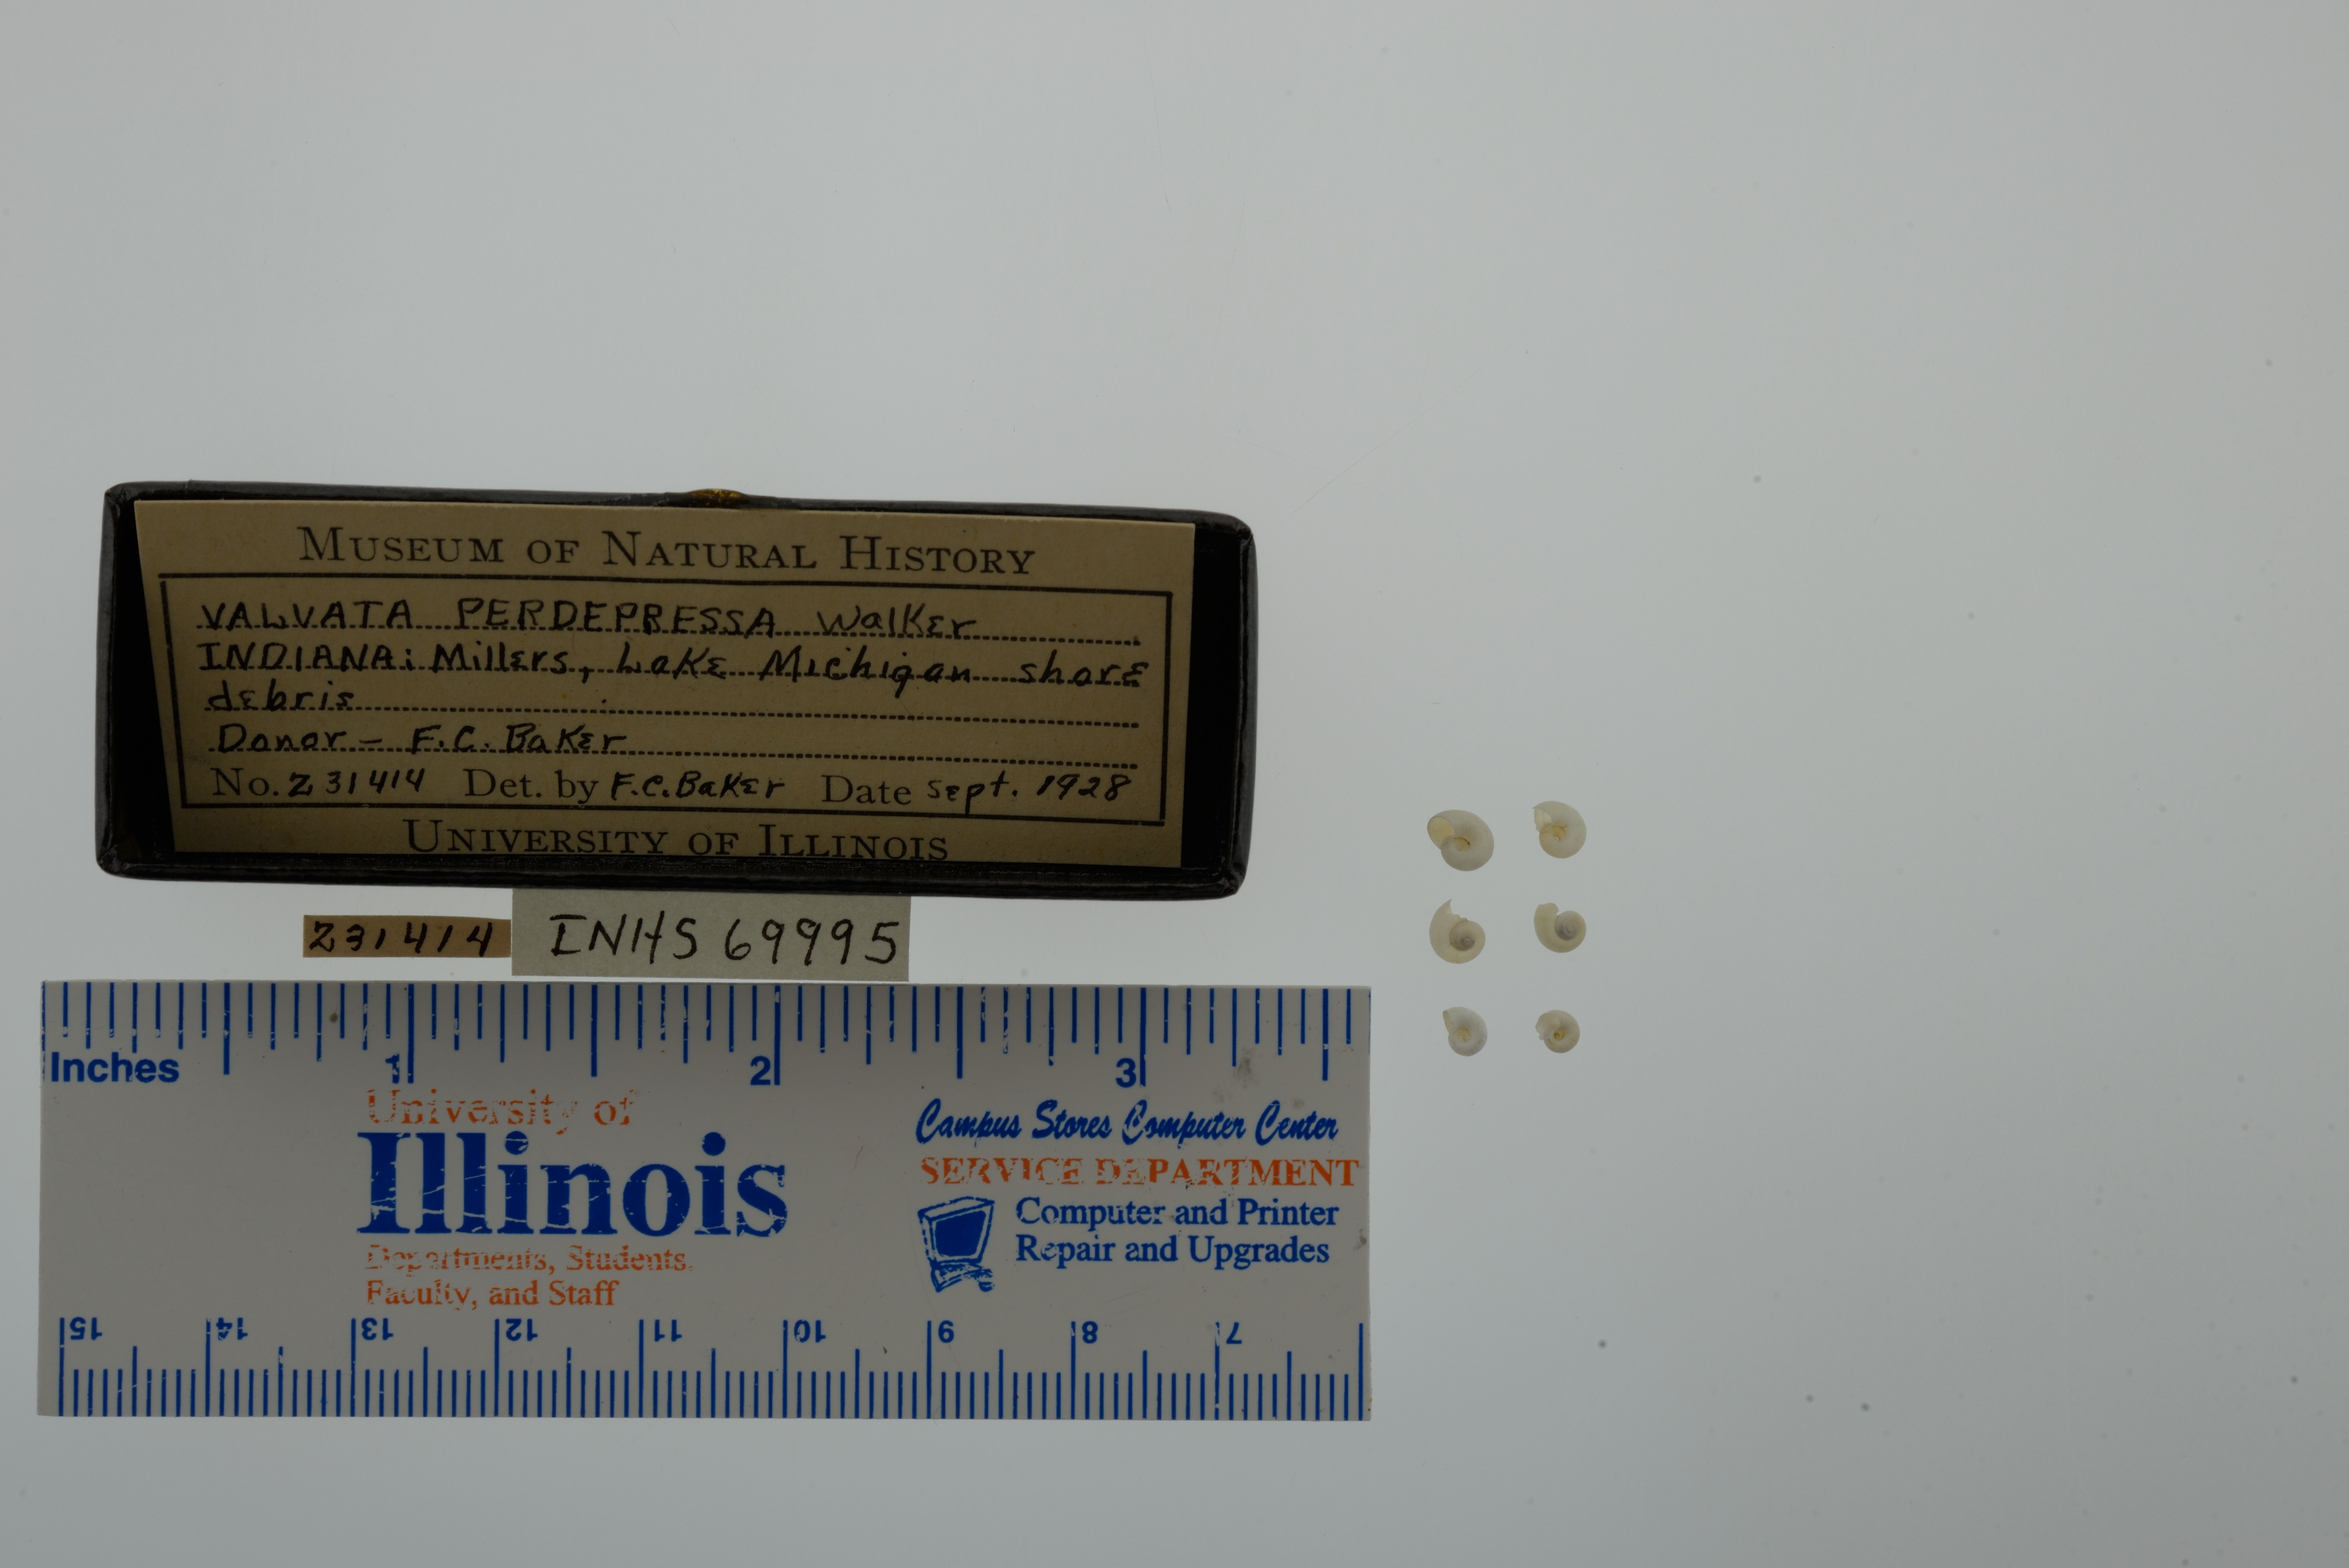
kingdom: Animalia
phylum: Mollusca
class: Gastropoda
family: Valvatidae
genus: Valvata
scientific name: Valvata perdepressa
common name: Purplecap valvata
